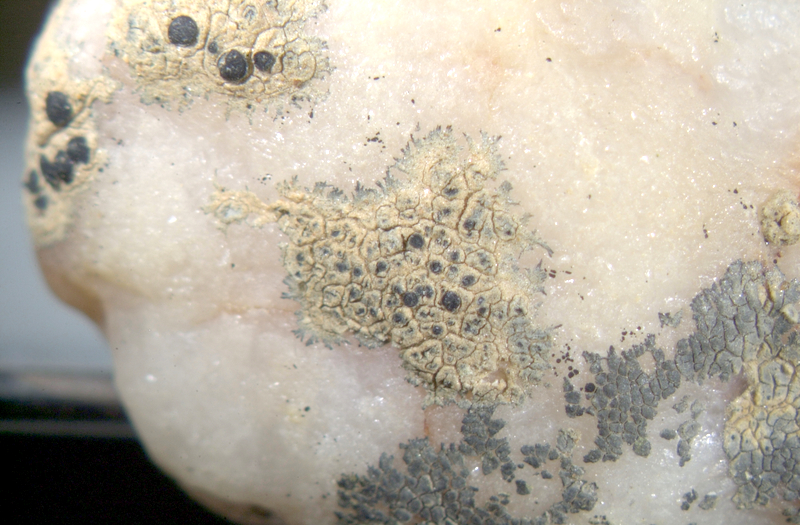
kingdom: Fungi
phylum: Ascomycota
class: Lecanoromycetes
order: Caliciales
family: Caliciaceae
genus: Amandinea
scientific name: Amandinea punctata
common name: Tiny button lichen
